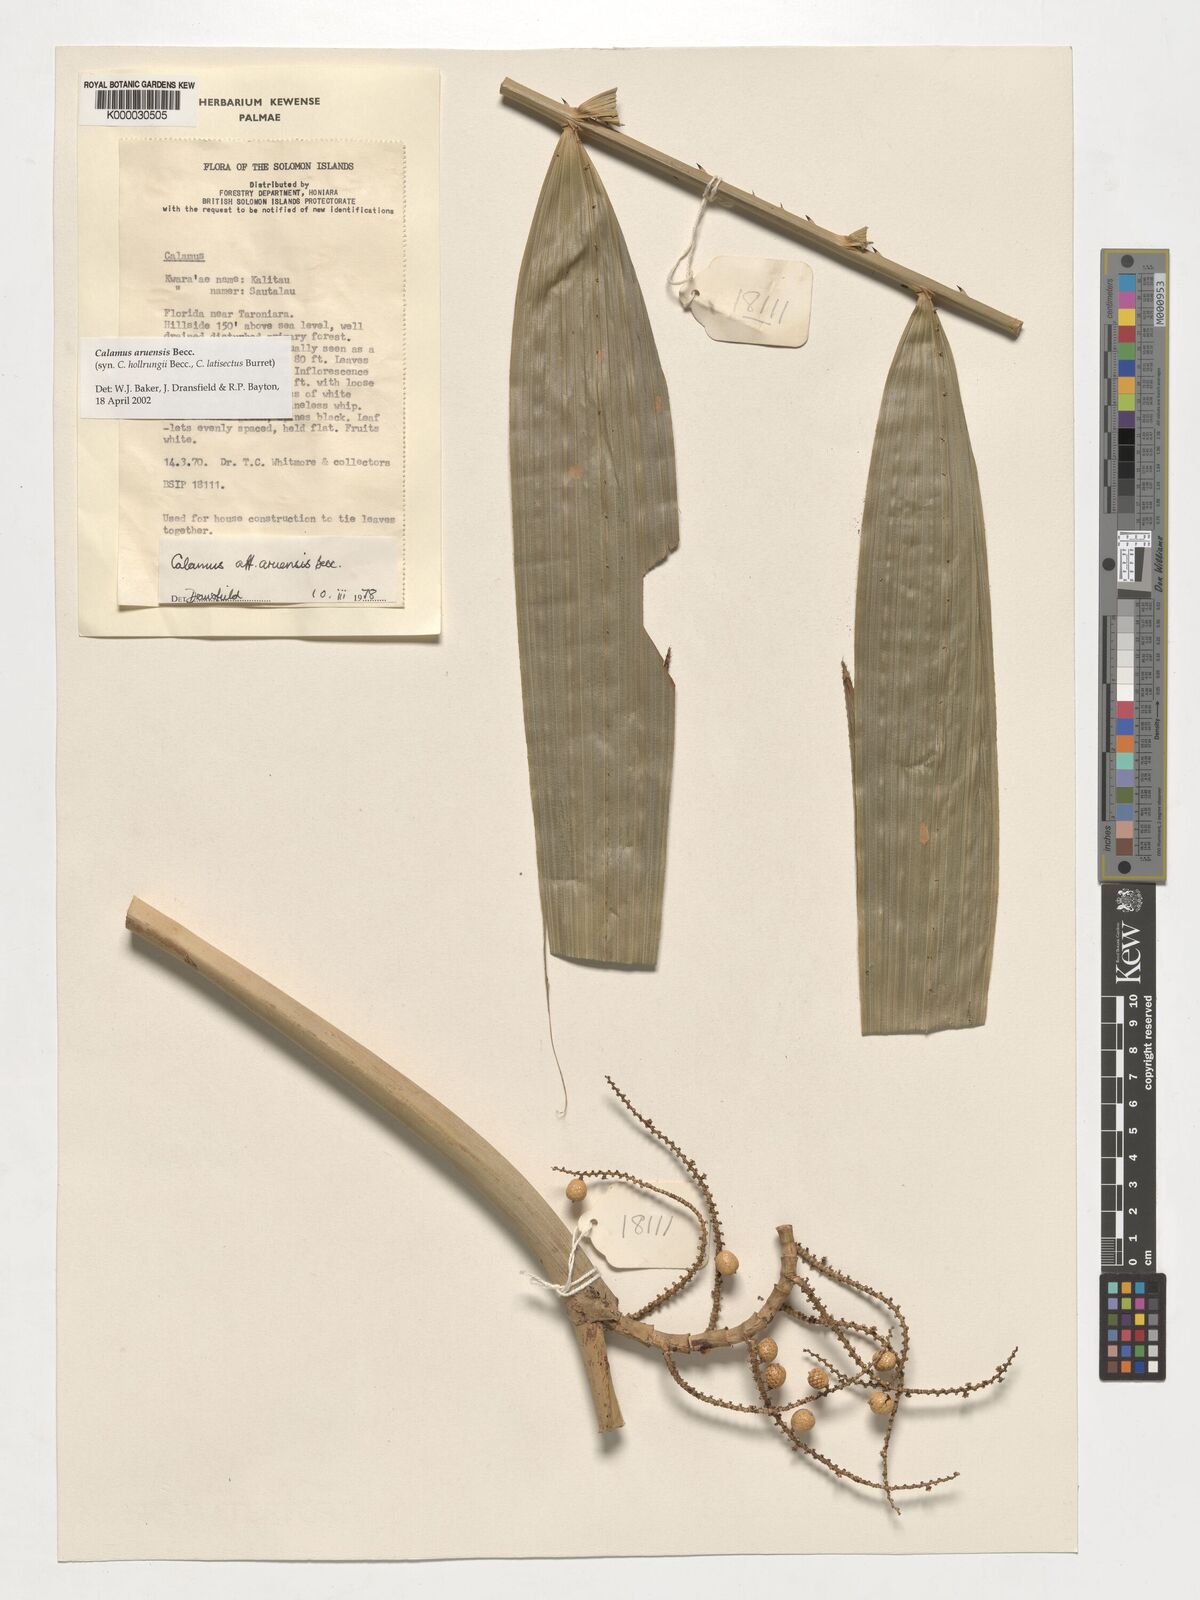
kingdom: Plantae
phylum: Tracheophyta
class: Liliopsida
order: Arecales
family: Arecaceae
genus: Calamus
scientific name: Calamus aruensis
